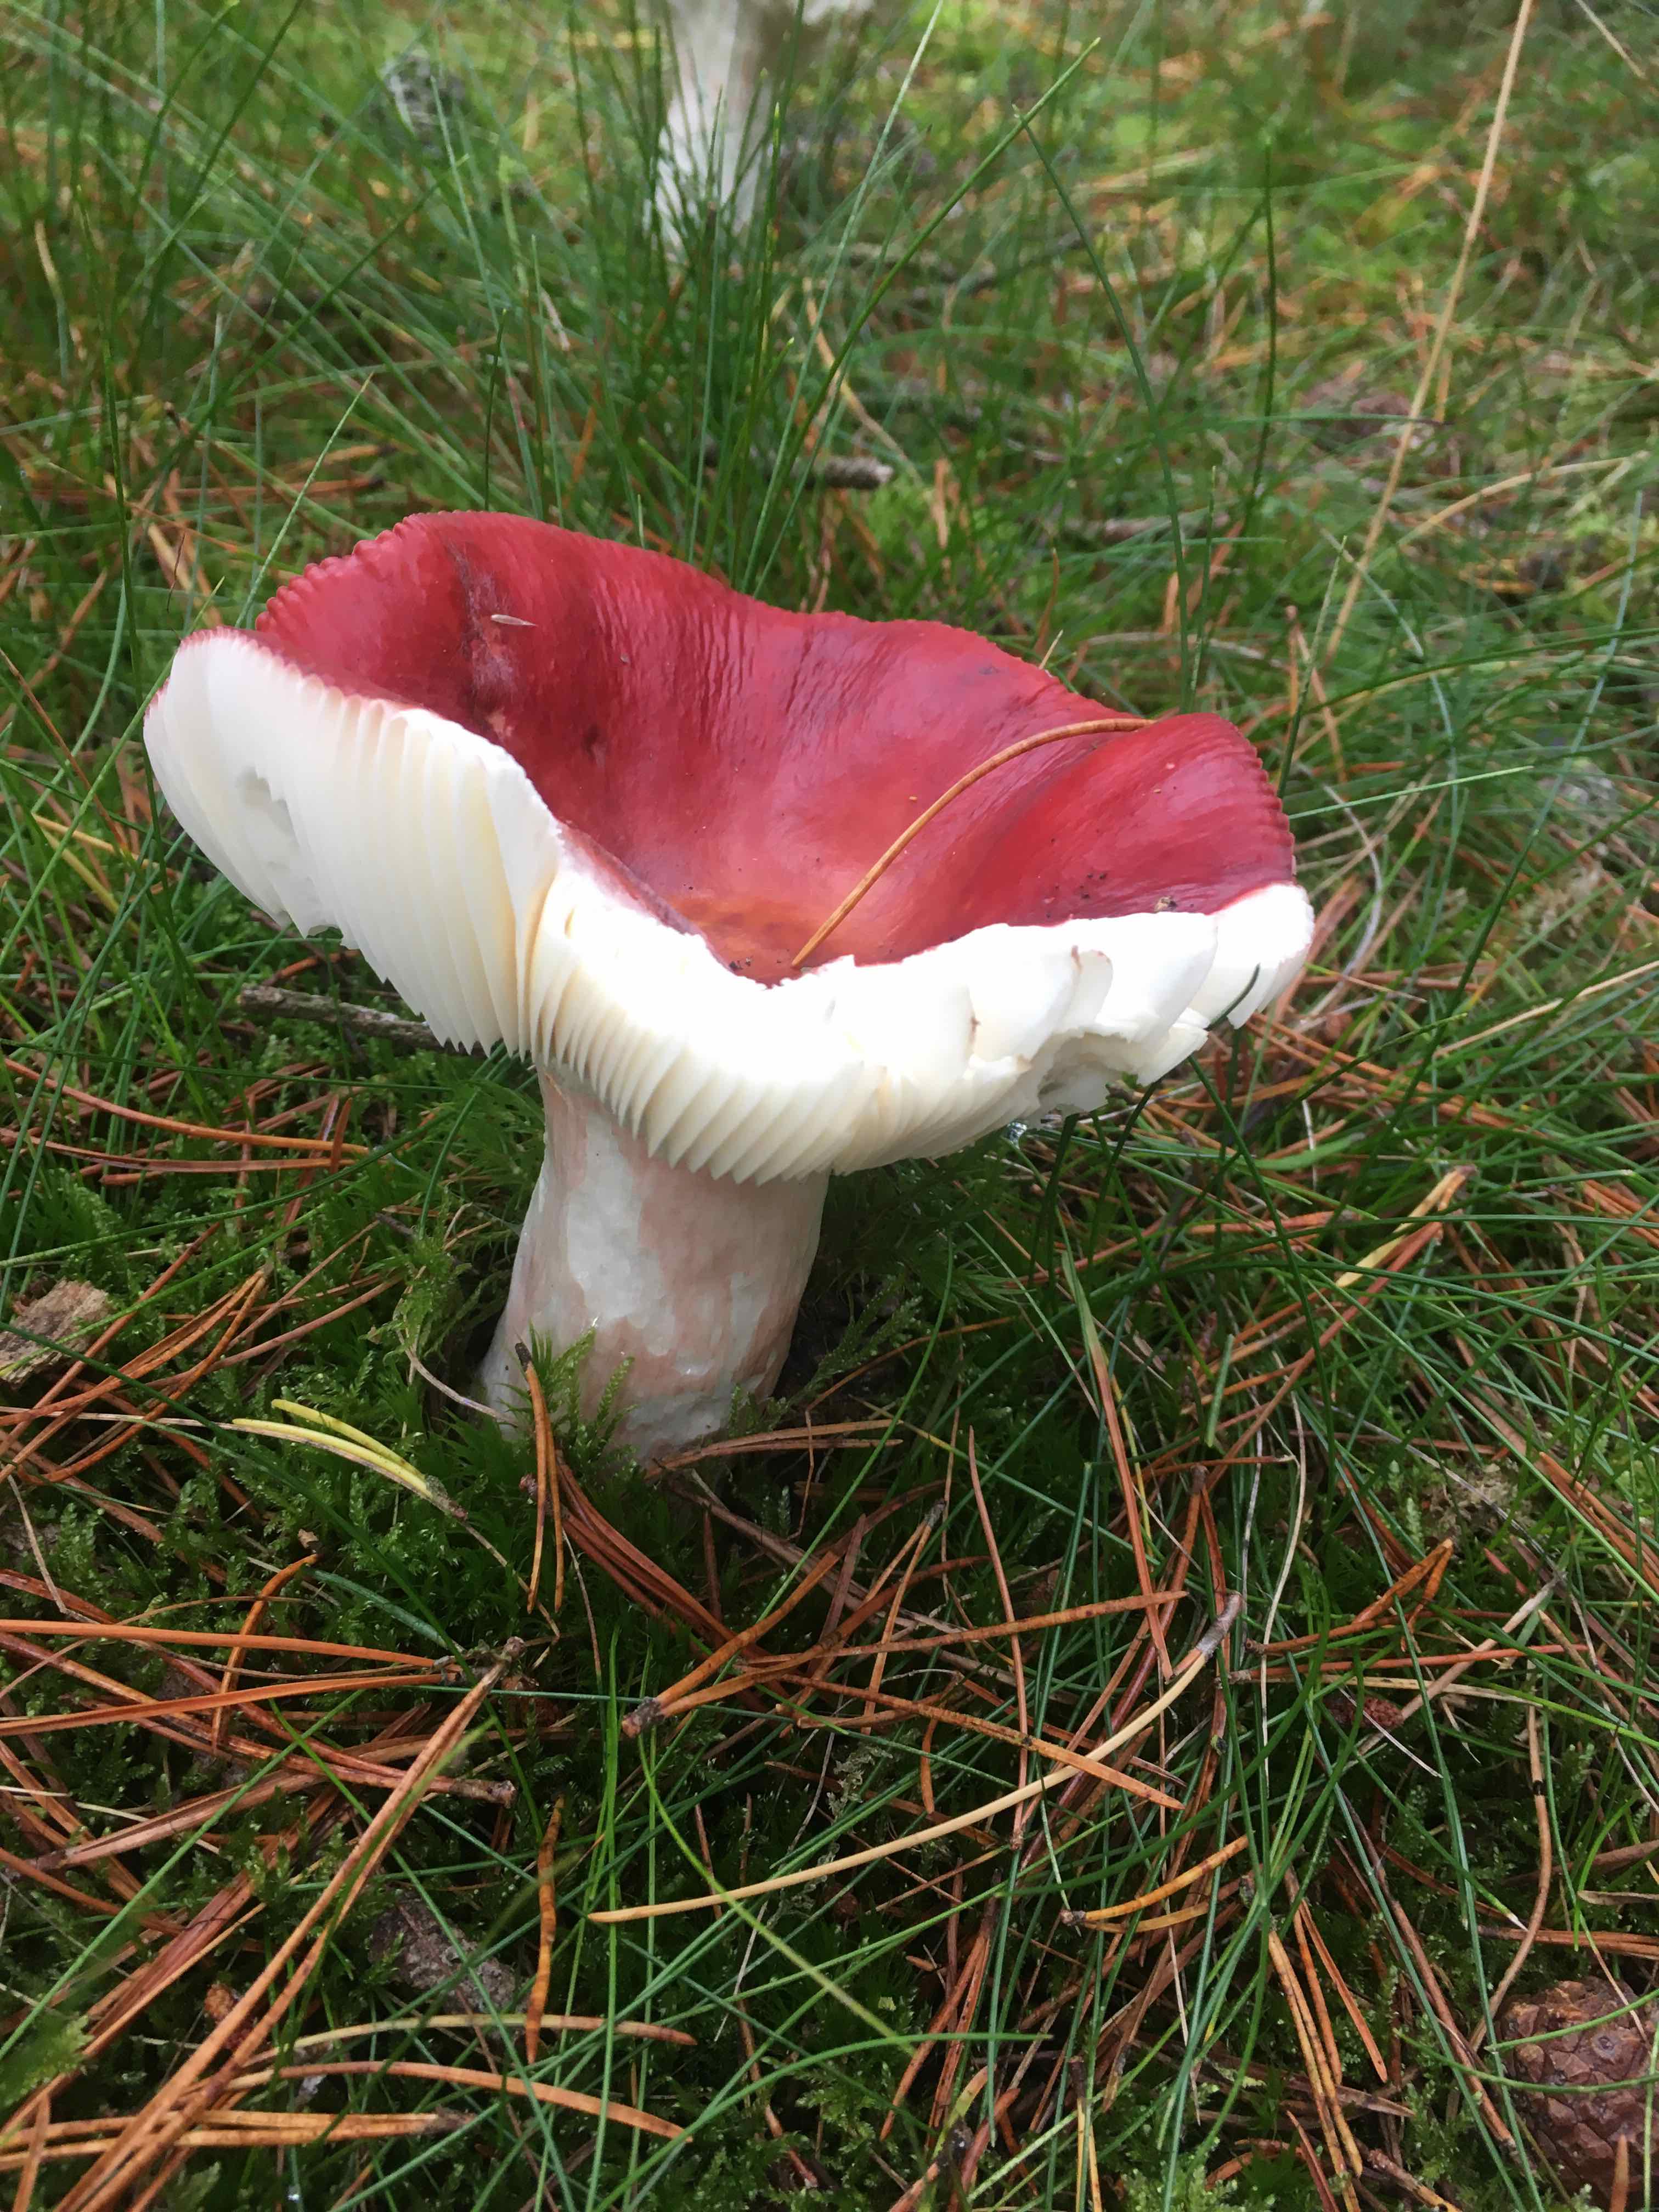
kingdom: Fungi
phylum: Basidiomycota
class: Agaricomycetes
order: Russulales
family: Russulaceae
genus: Russula
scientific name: Russula paludosa
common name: prægtig skørhat
